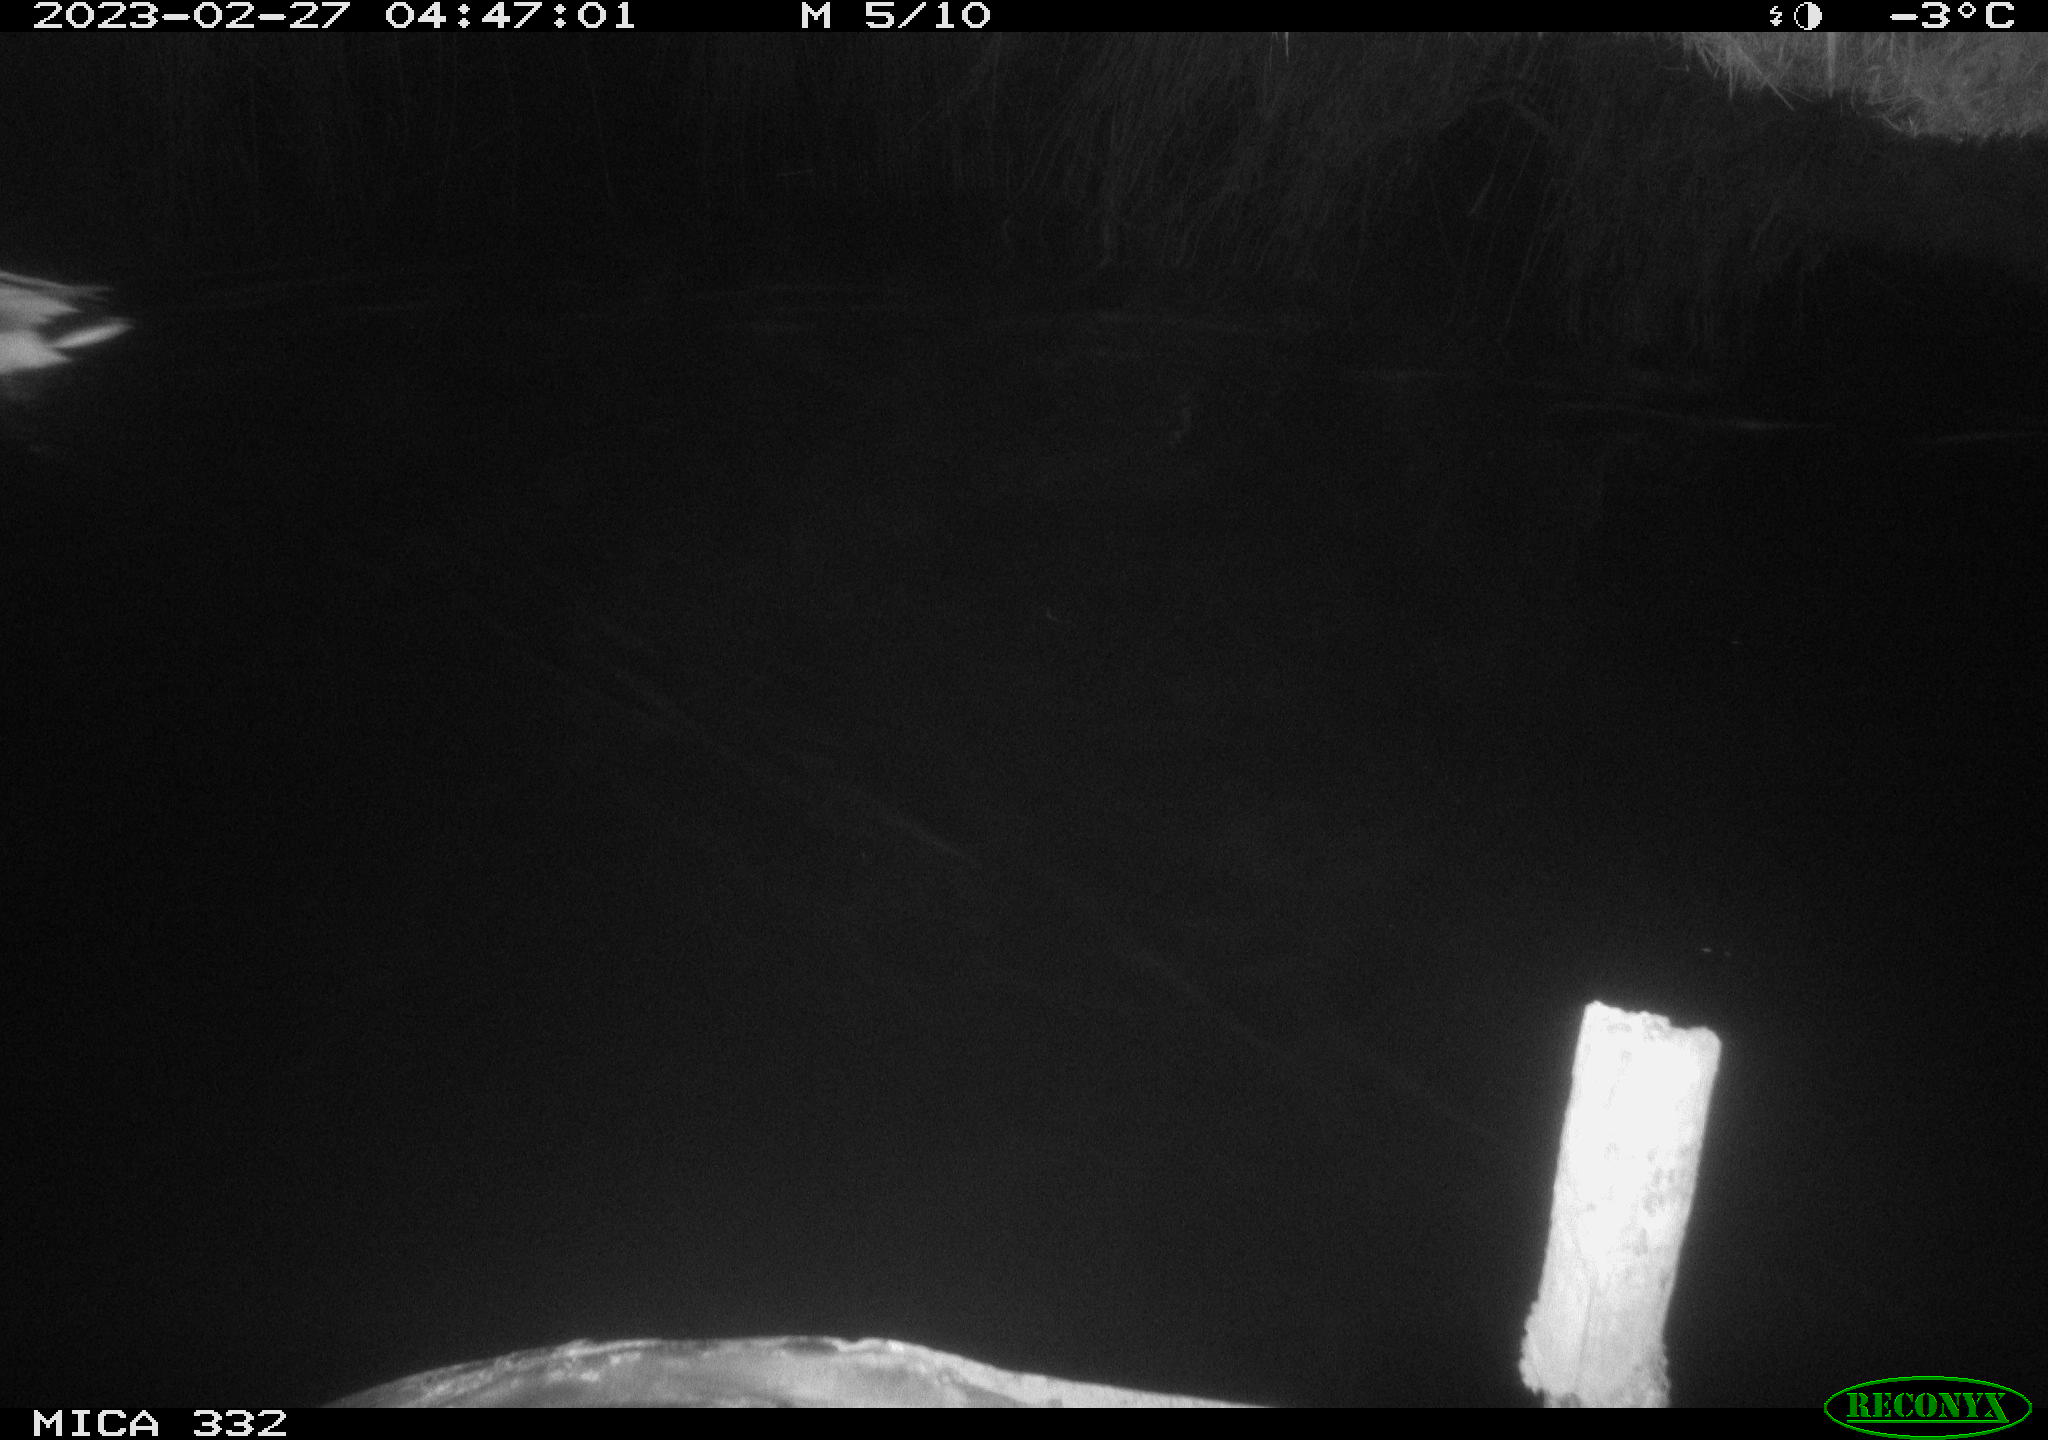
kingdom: Animalia
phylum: Chordata
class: Aves
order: Anseriformes
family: Anatidae
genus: Anas
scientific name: Anas
